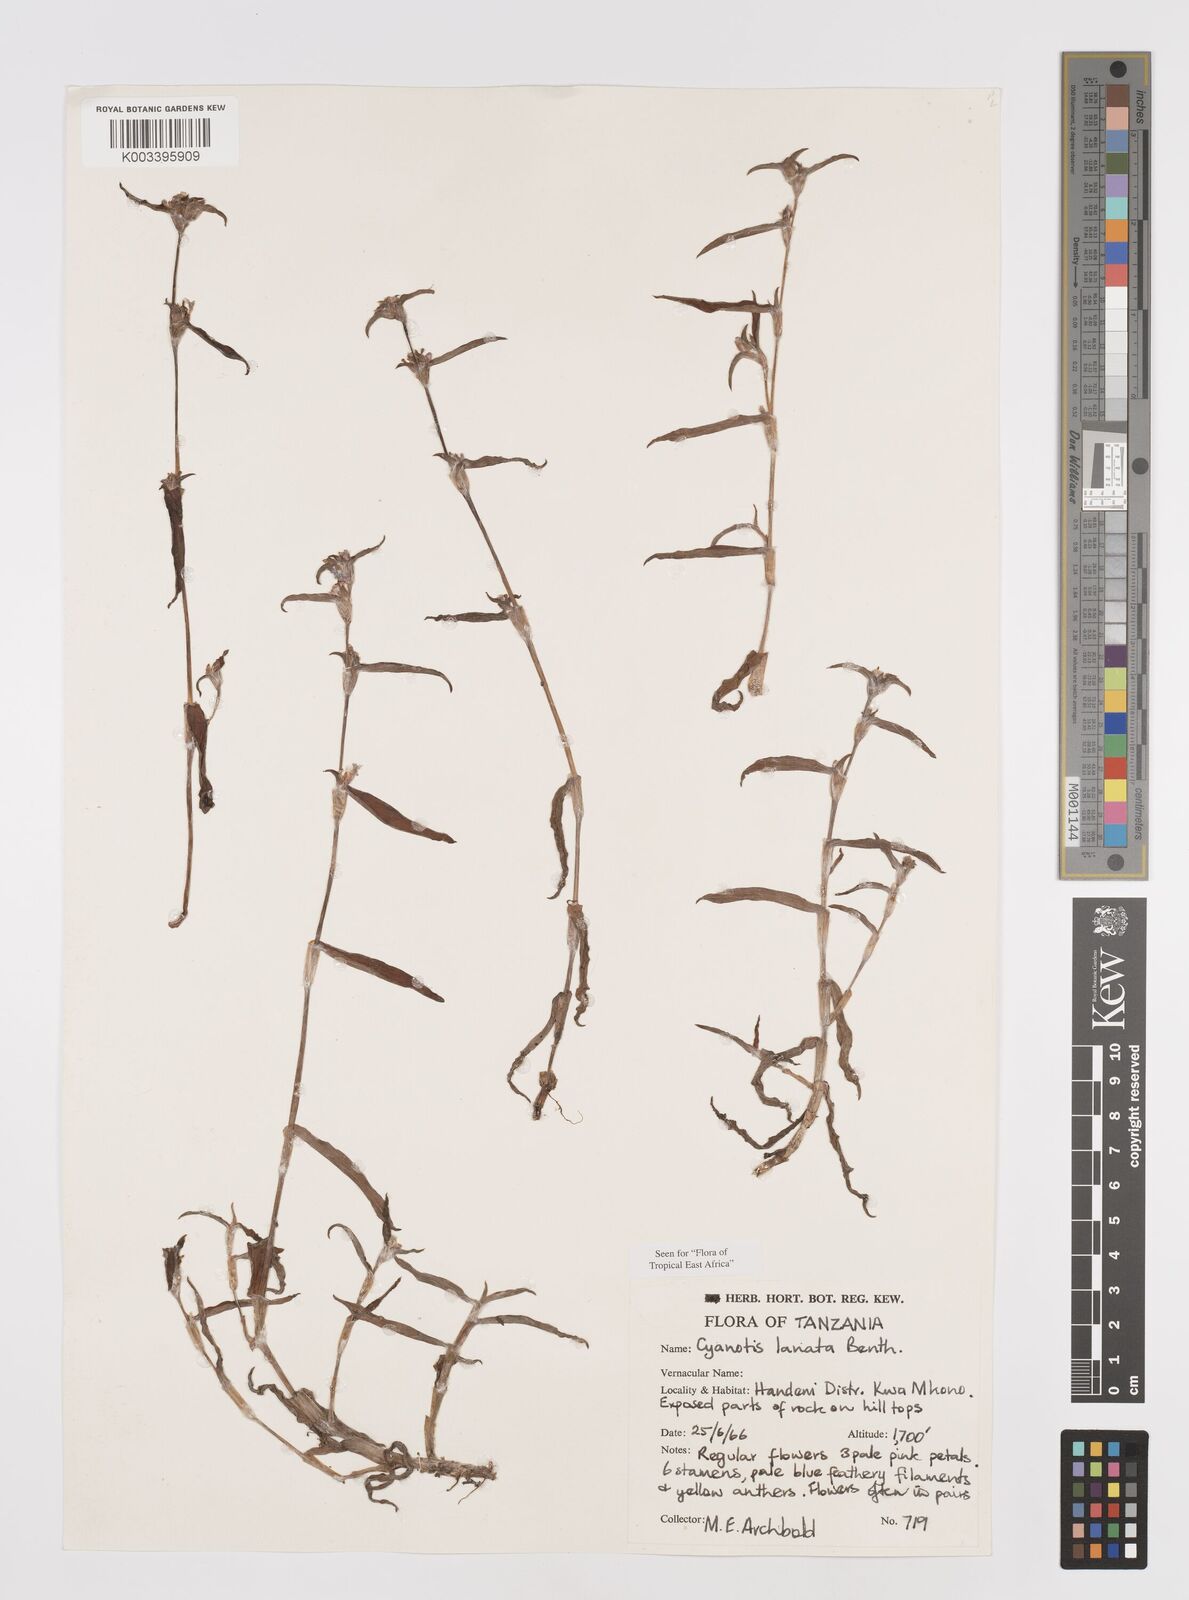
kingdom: Plantae
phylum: Tracheophyta
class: Liliopsida
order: Commelinales
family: Commelinaceae
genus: Cyanotis
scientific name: Cyanotis lanata
